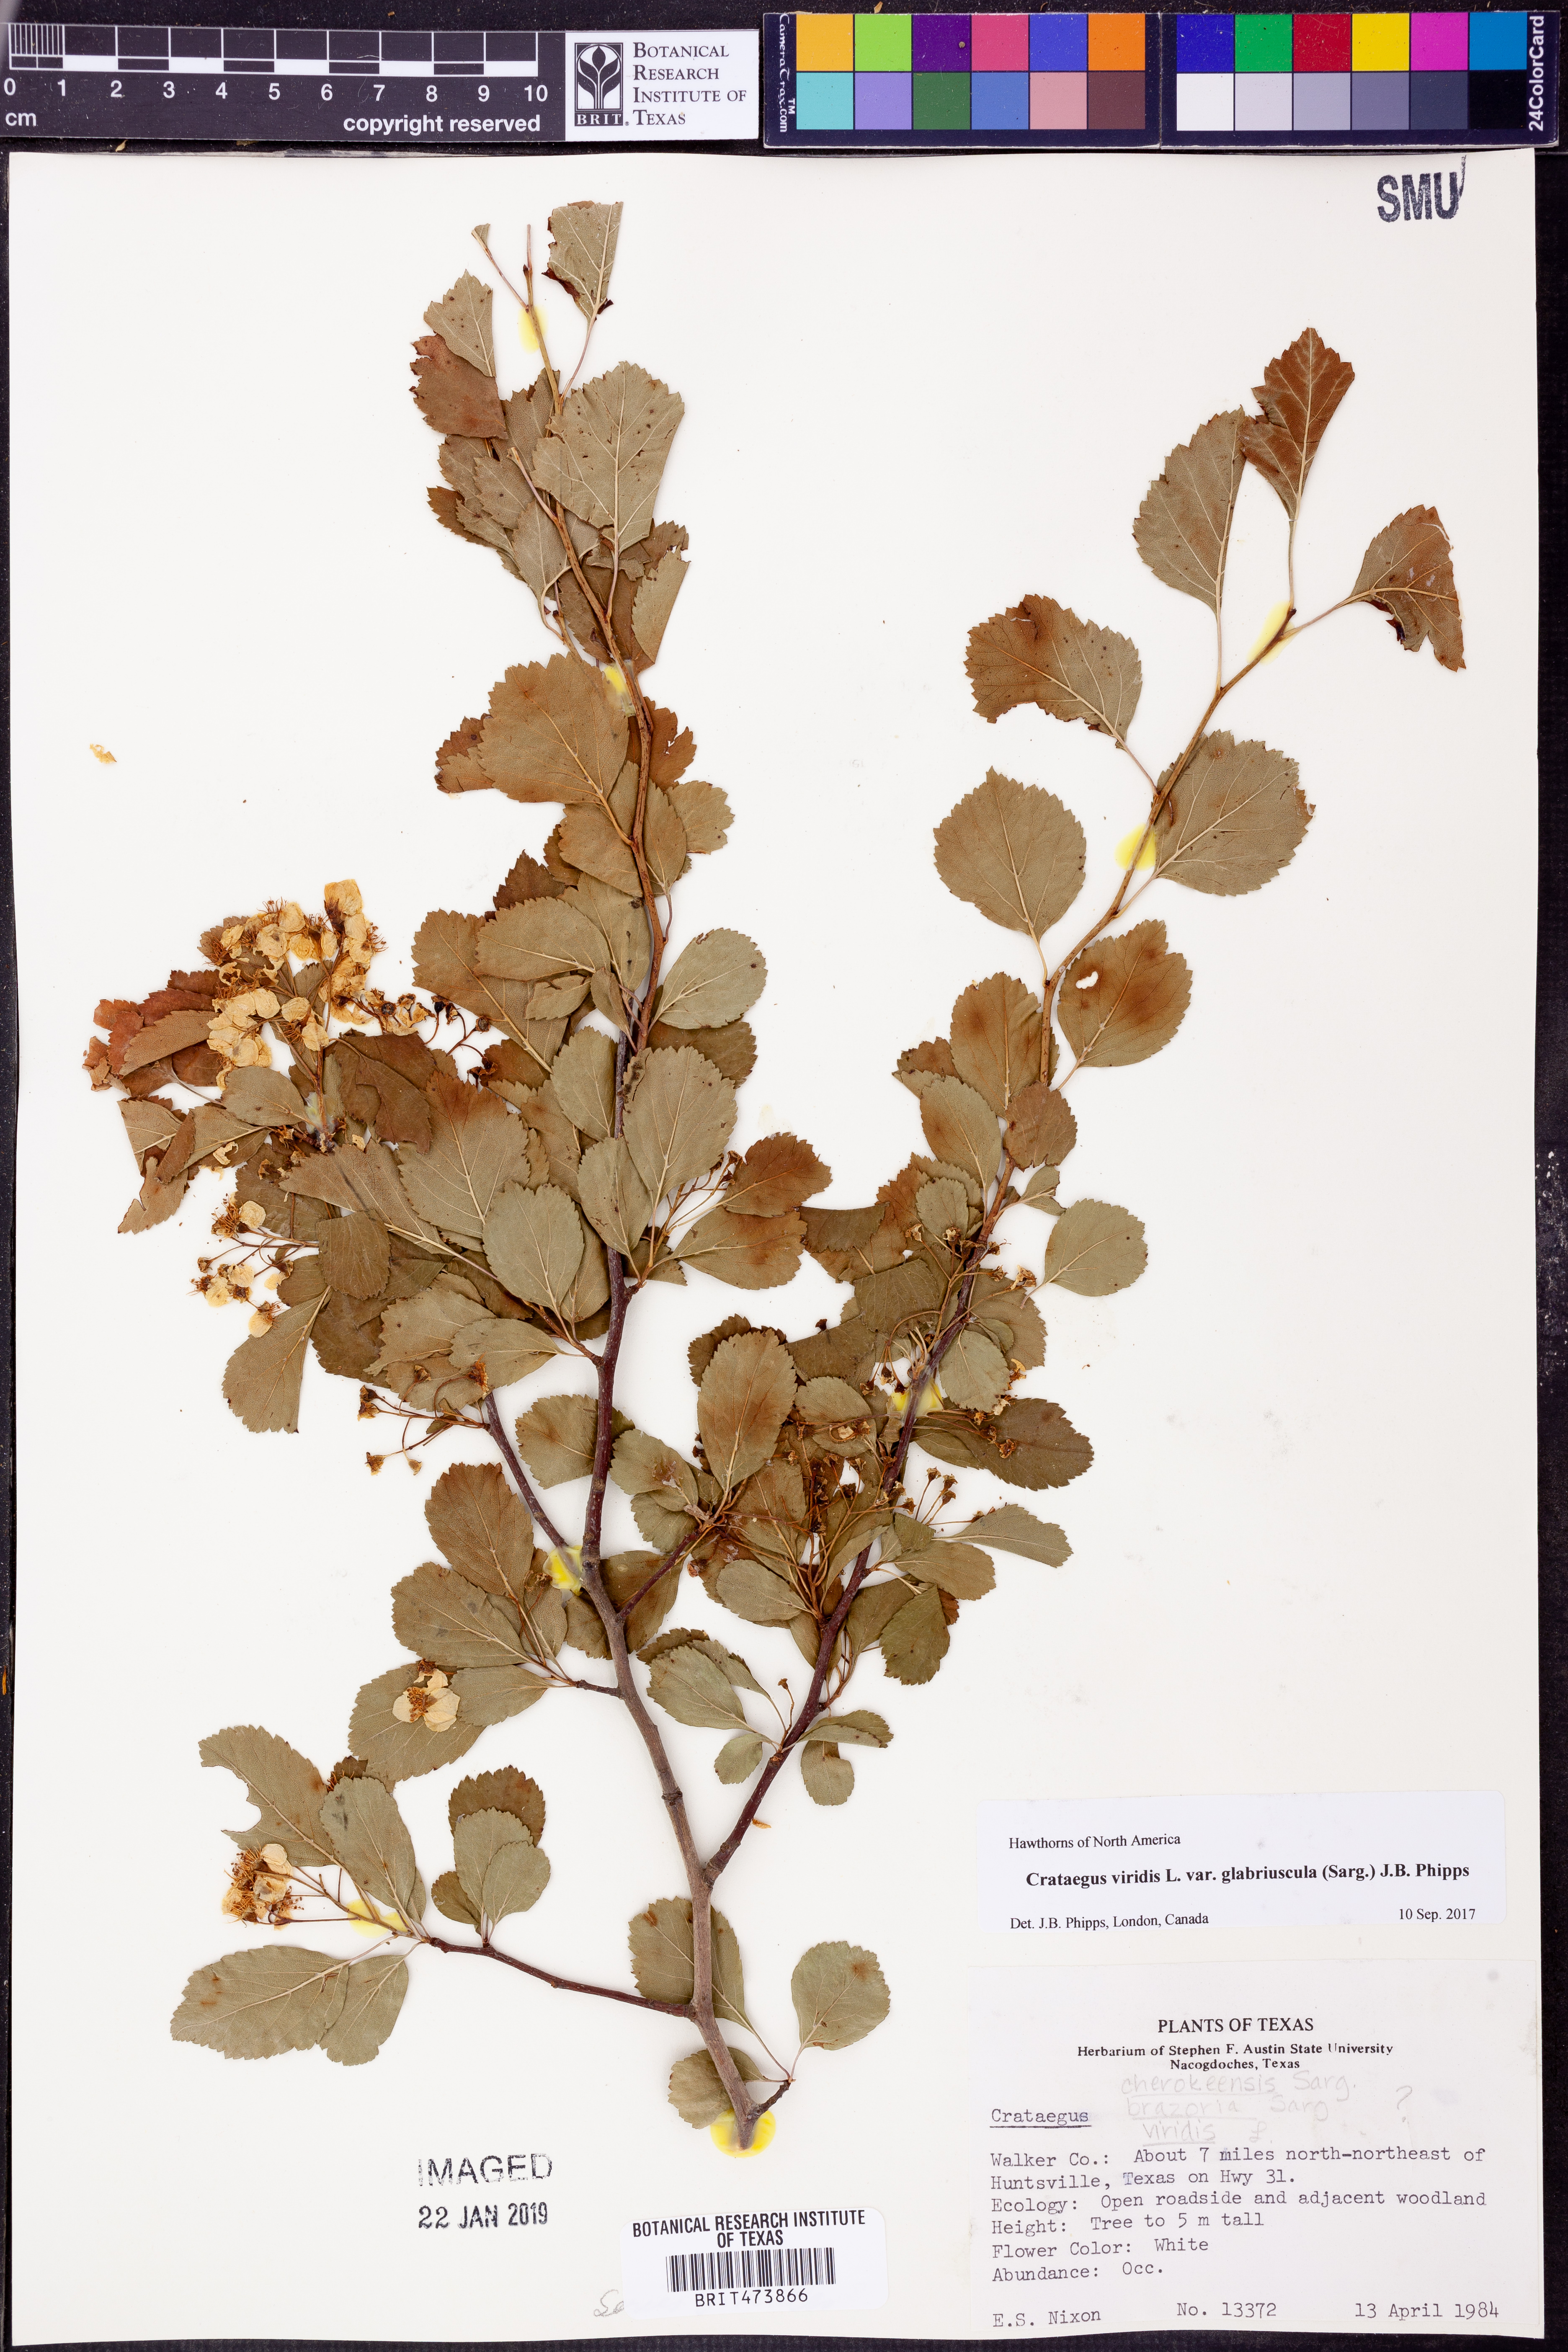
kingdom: Plantae
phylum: Tracheophyta
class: Magnoliopsida
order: Rosales
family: Rosaceae
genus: Crataegus
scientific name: Crataegus viridis
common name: Southernthorn
